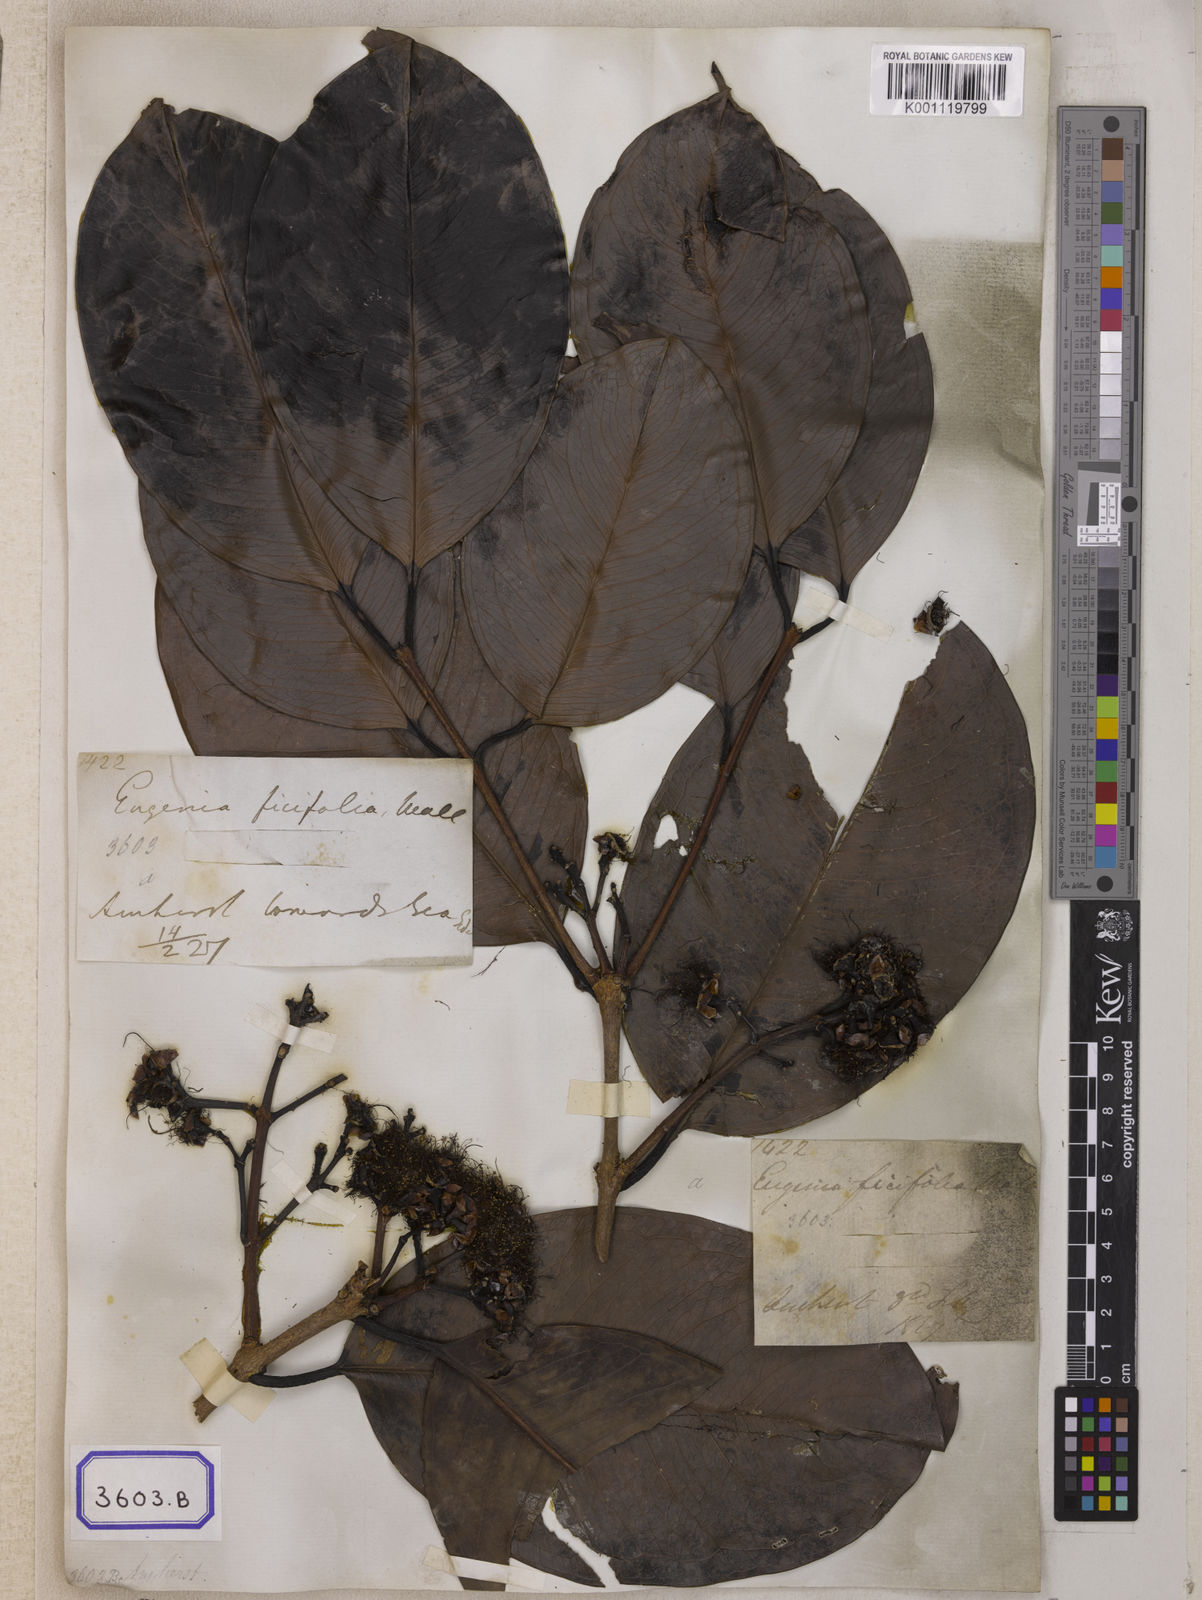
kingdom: Plantae
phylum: Tracheophyta
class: Magnoliopsida
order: Myrtales
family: Myrtaceae
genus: Eugenia
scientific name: Eugenia
